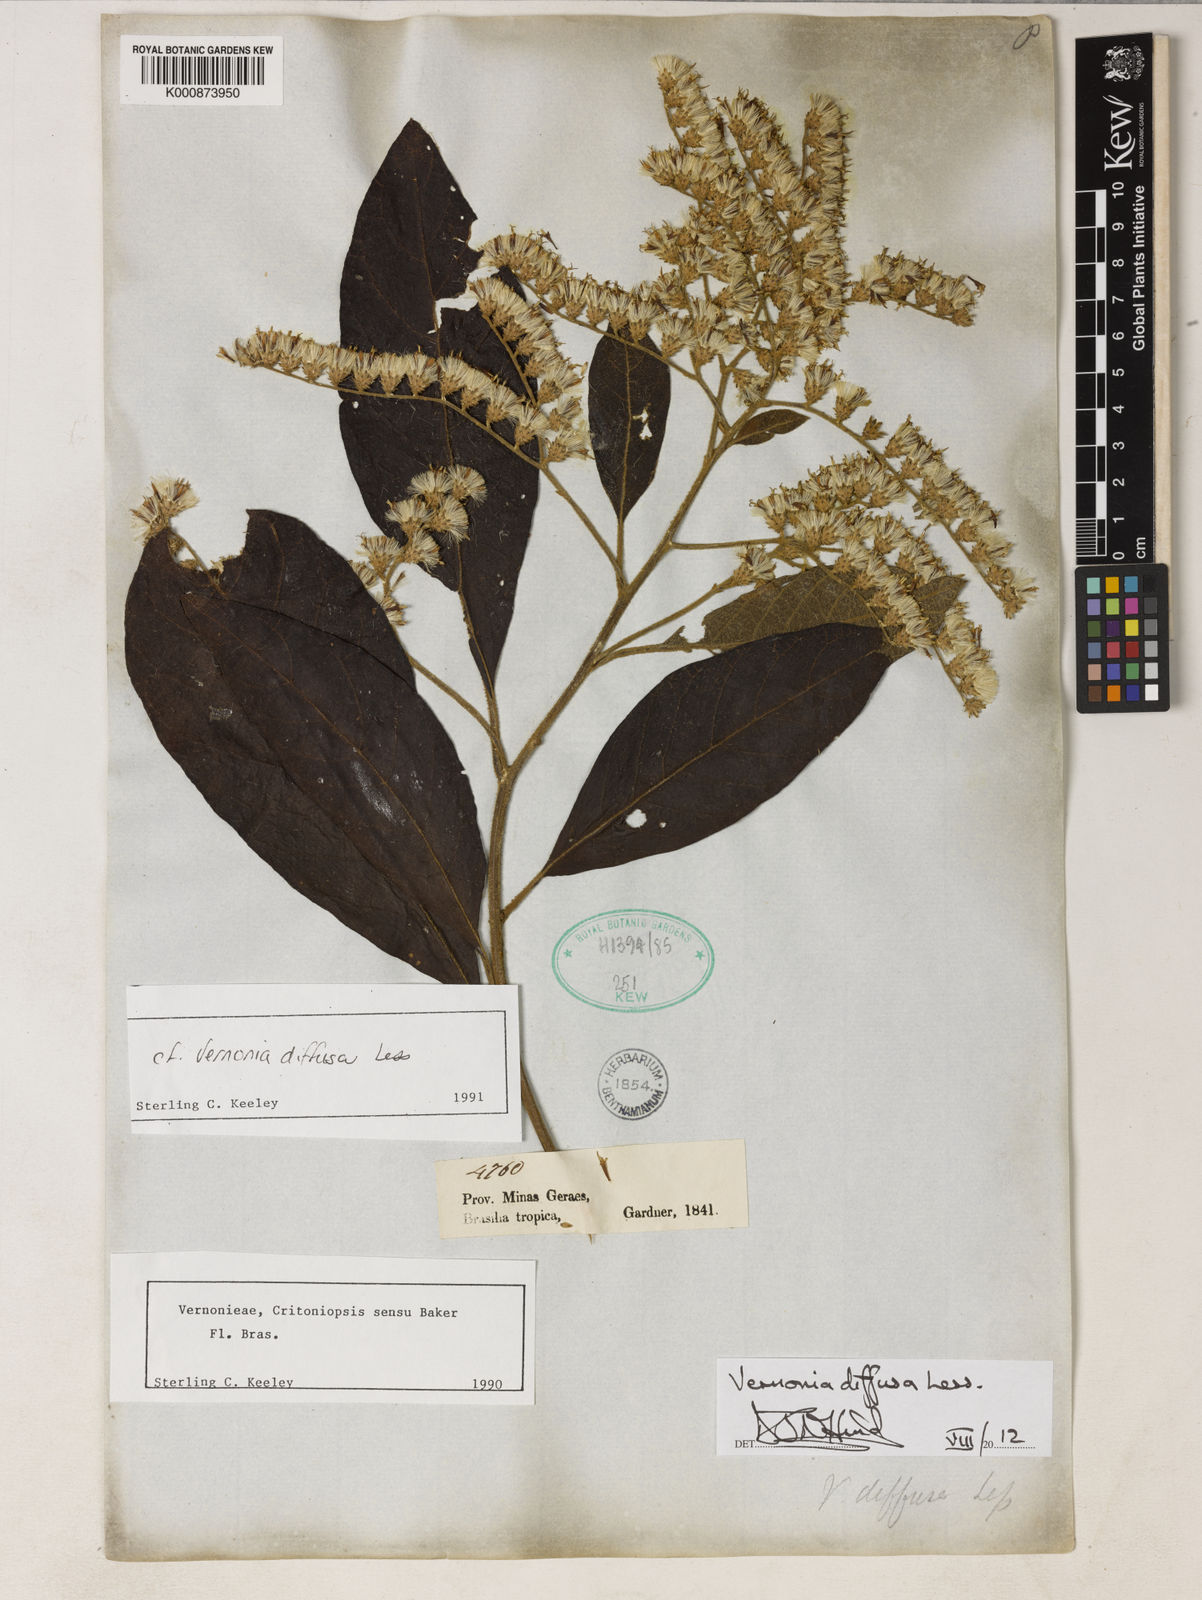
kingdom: Plantae
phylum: Tracheophyta
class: Magnoliopsida
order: Asterales
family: Asteraceae
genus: Vernonanthura
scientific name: Vernonanthura divaricata
